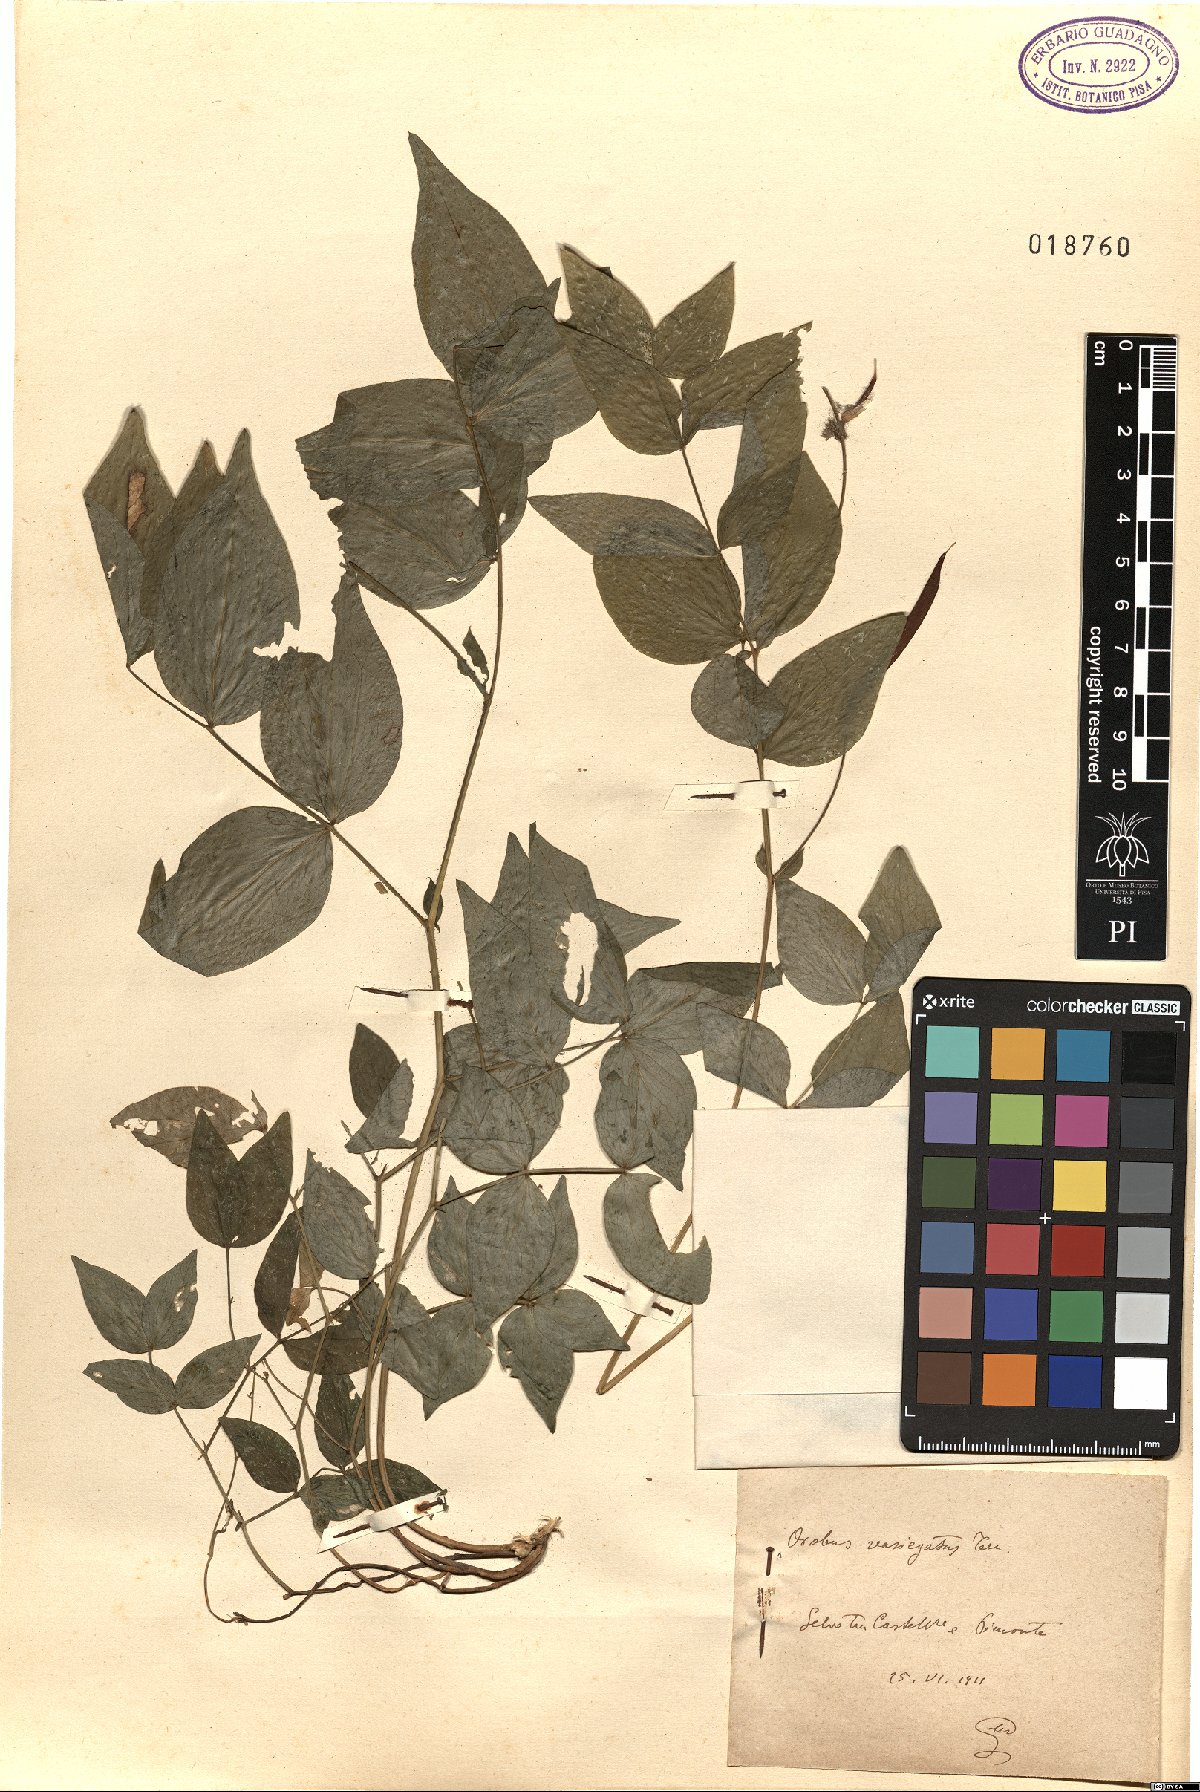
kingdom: Plantae
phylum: Tracheophyta
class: Magnoliopsida
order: Fabales
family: Fabaceae
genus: Lathyrus
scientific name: Lathyrus venetus
